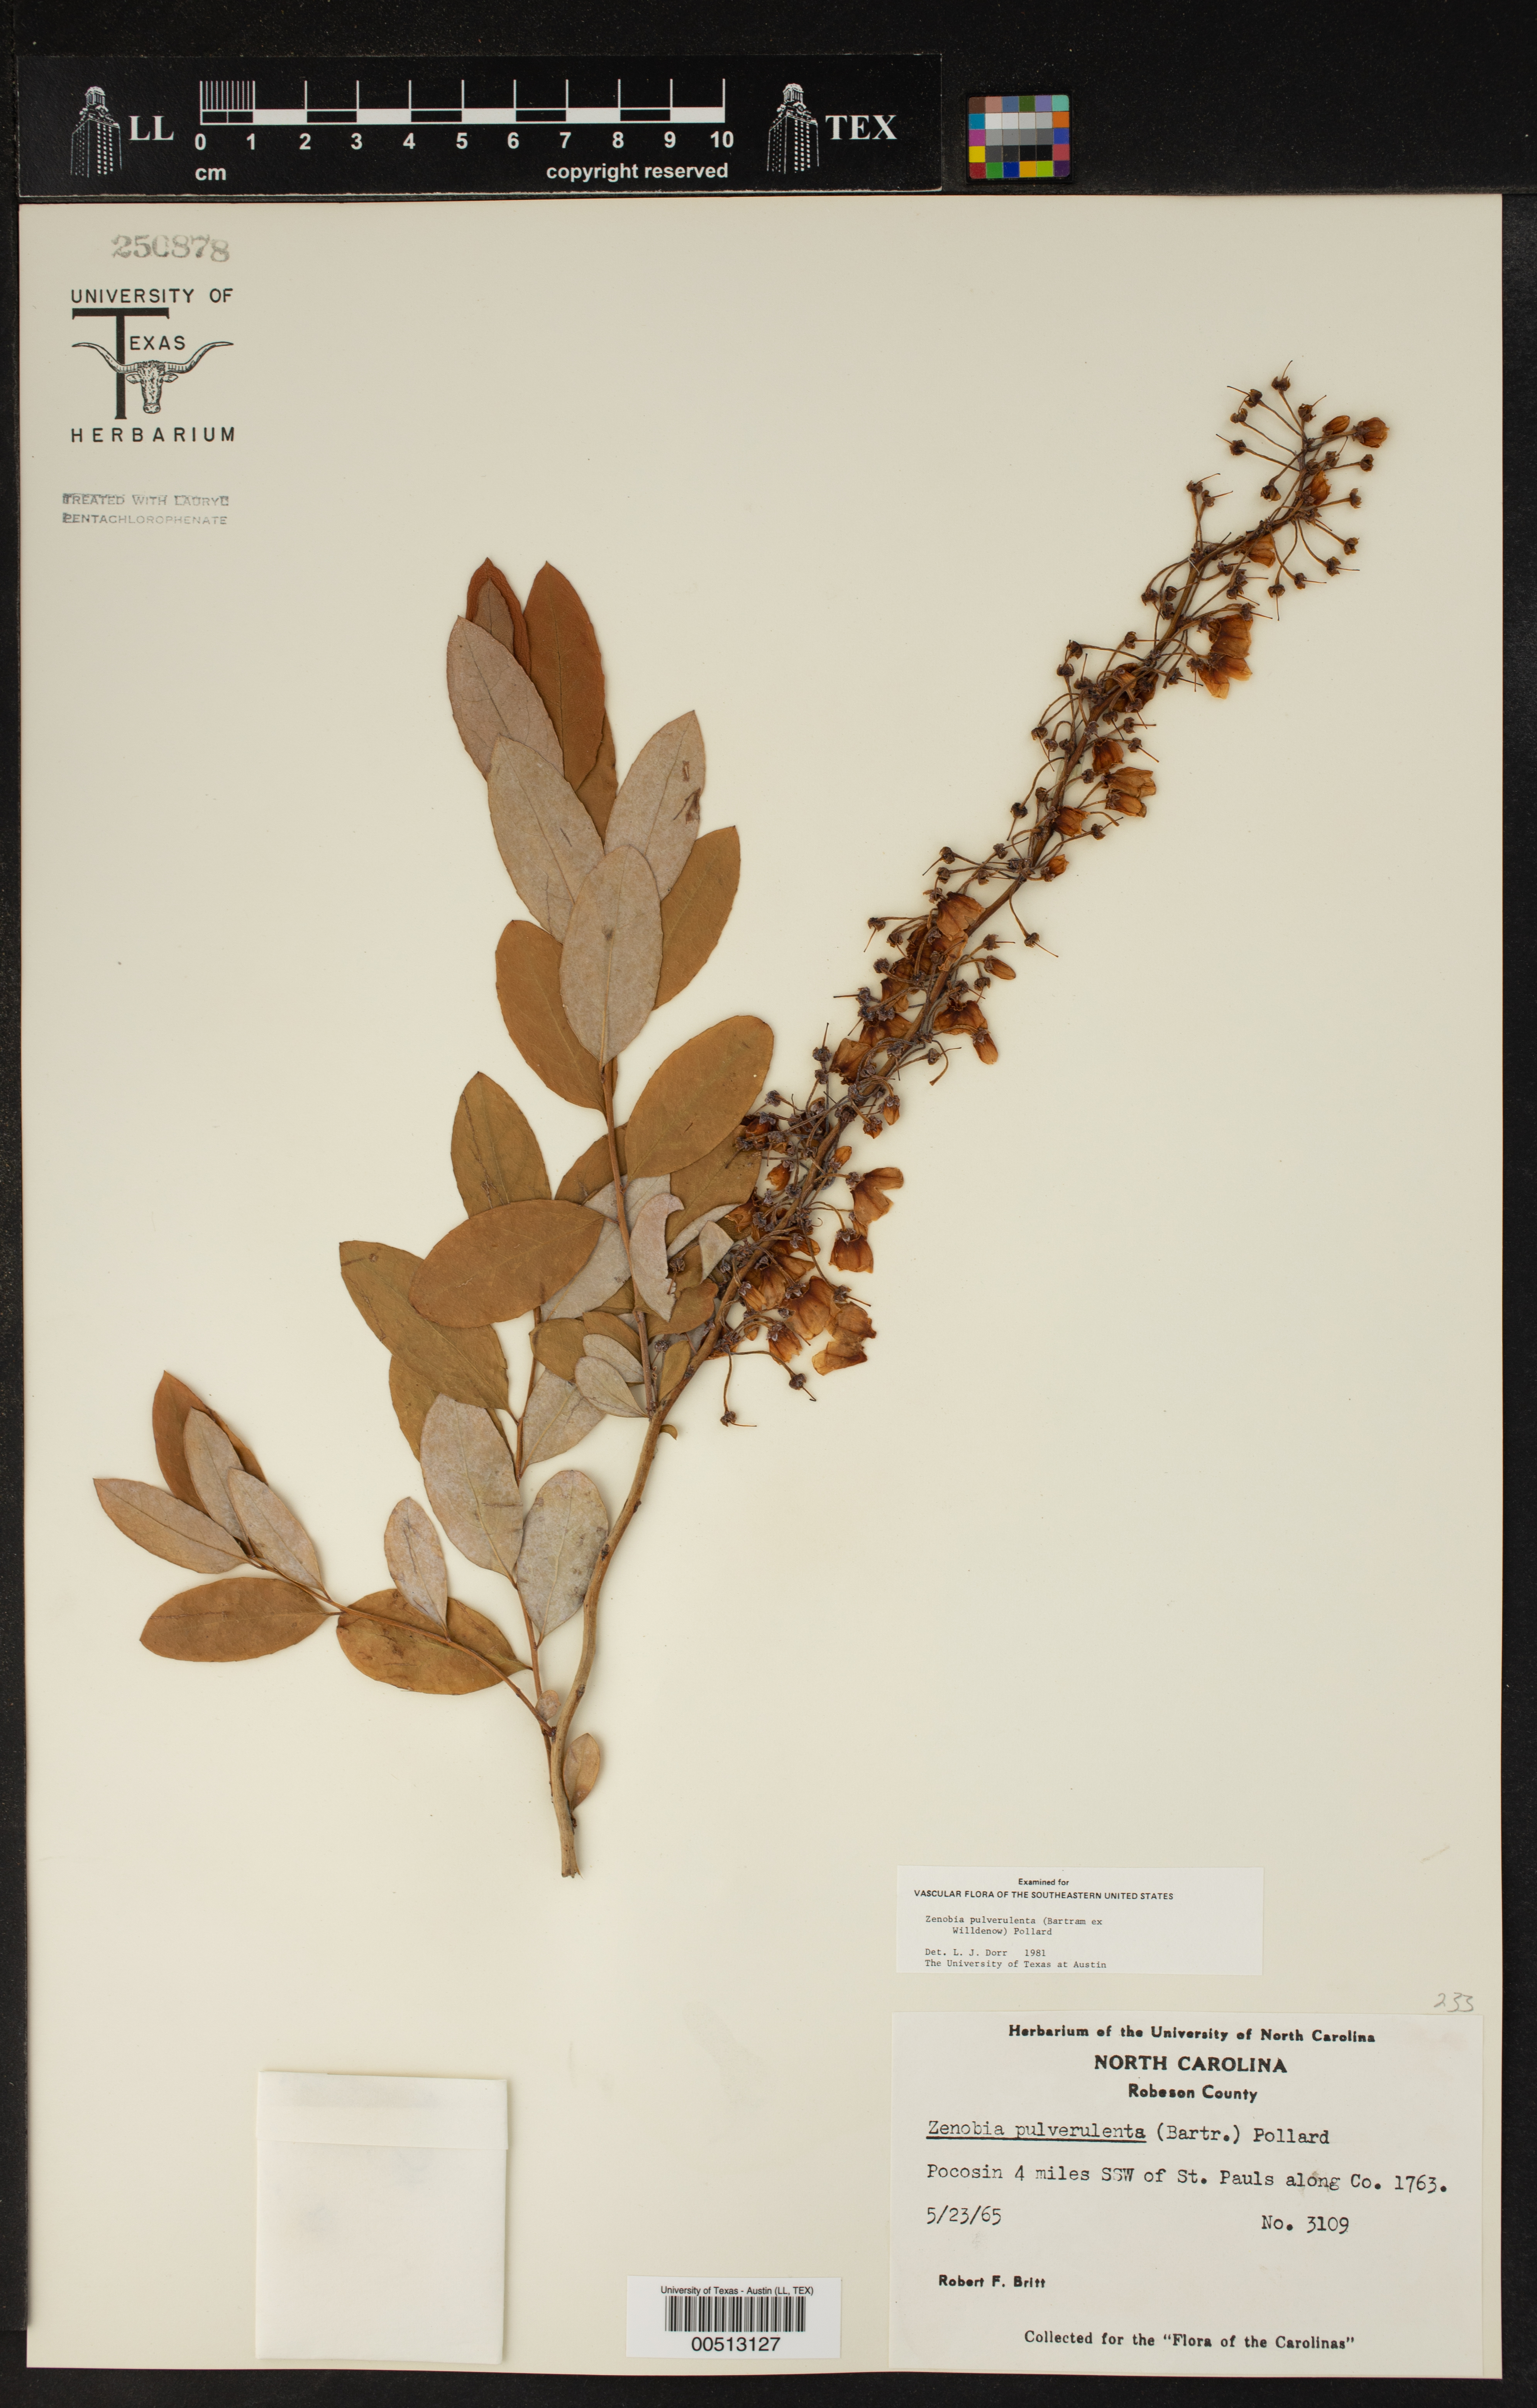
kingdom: Plantae
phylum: Tracheophyta
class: Magnoliopsida
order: Ericales
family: Ericaceae
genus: Zenobia
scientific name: Zenobia pulverulenta
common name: Zenobia
